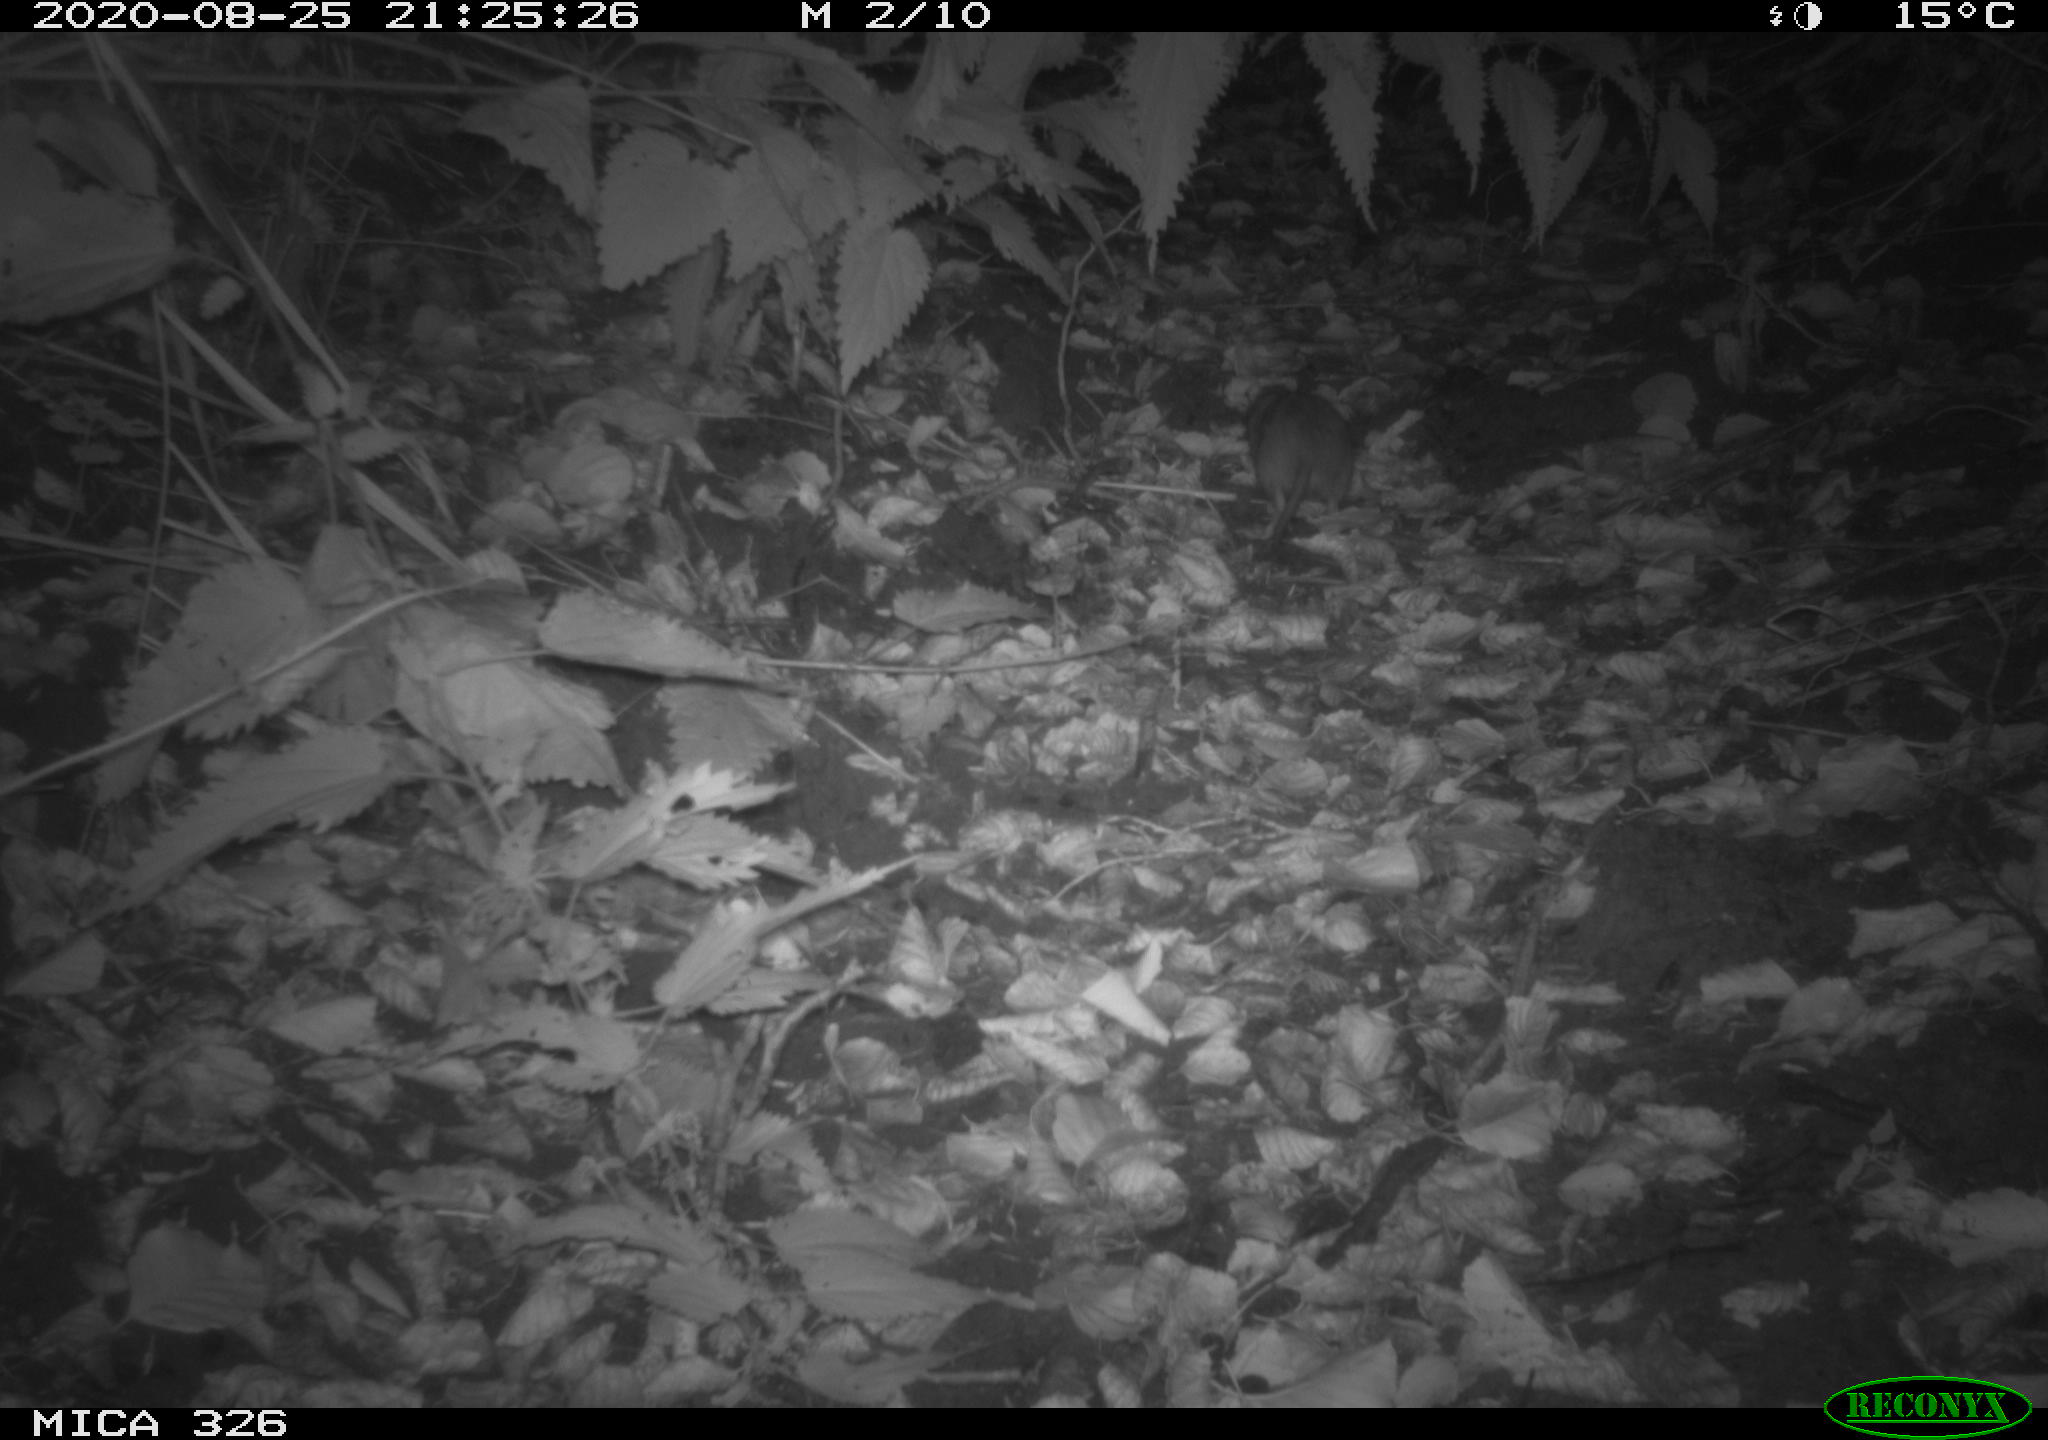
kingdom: Animalia
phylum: Chordata
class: Mammalia
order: Rodentia
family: Muridae
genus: Rattus
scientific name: Rattus norvegicus
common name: Brown rat
